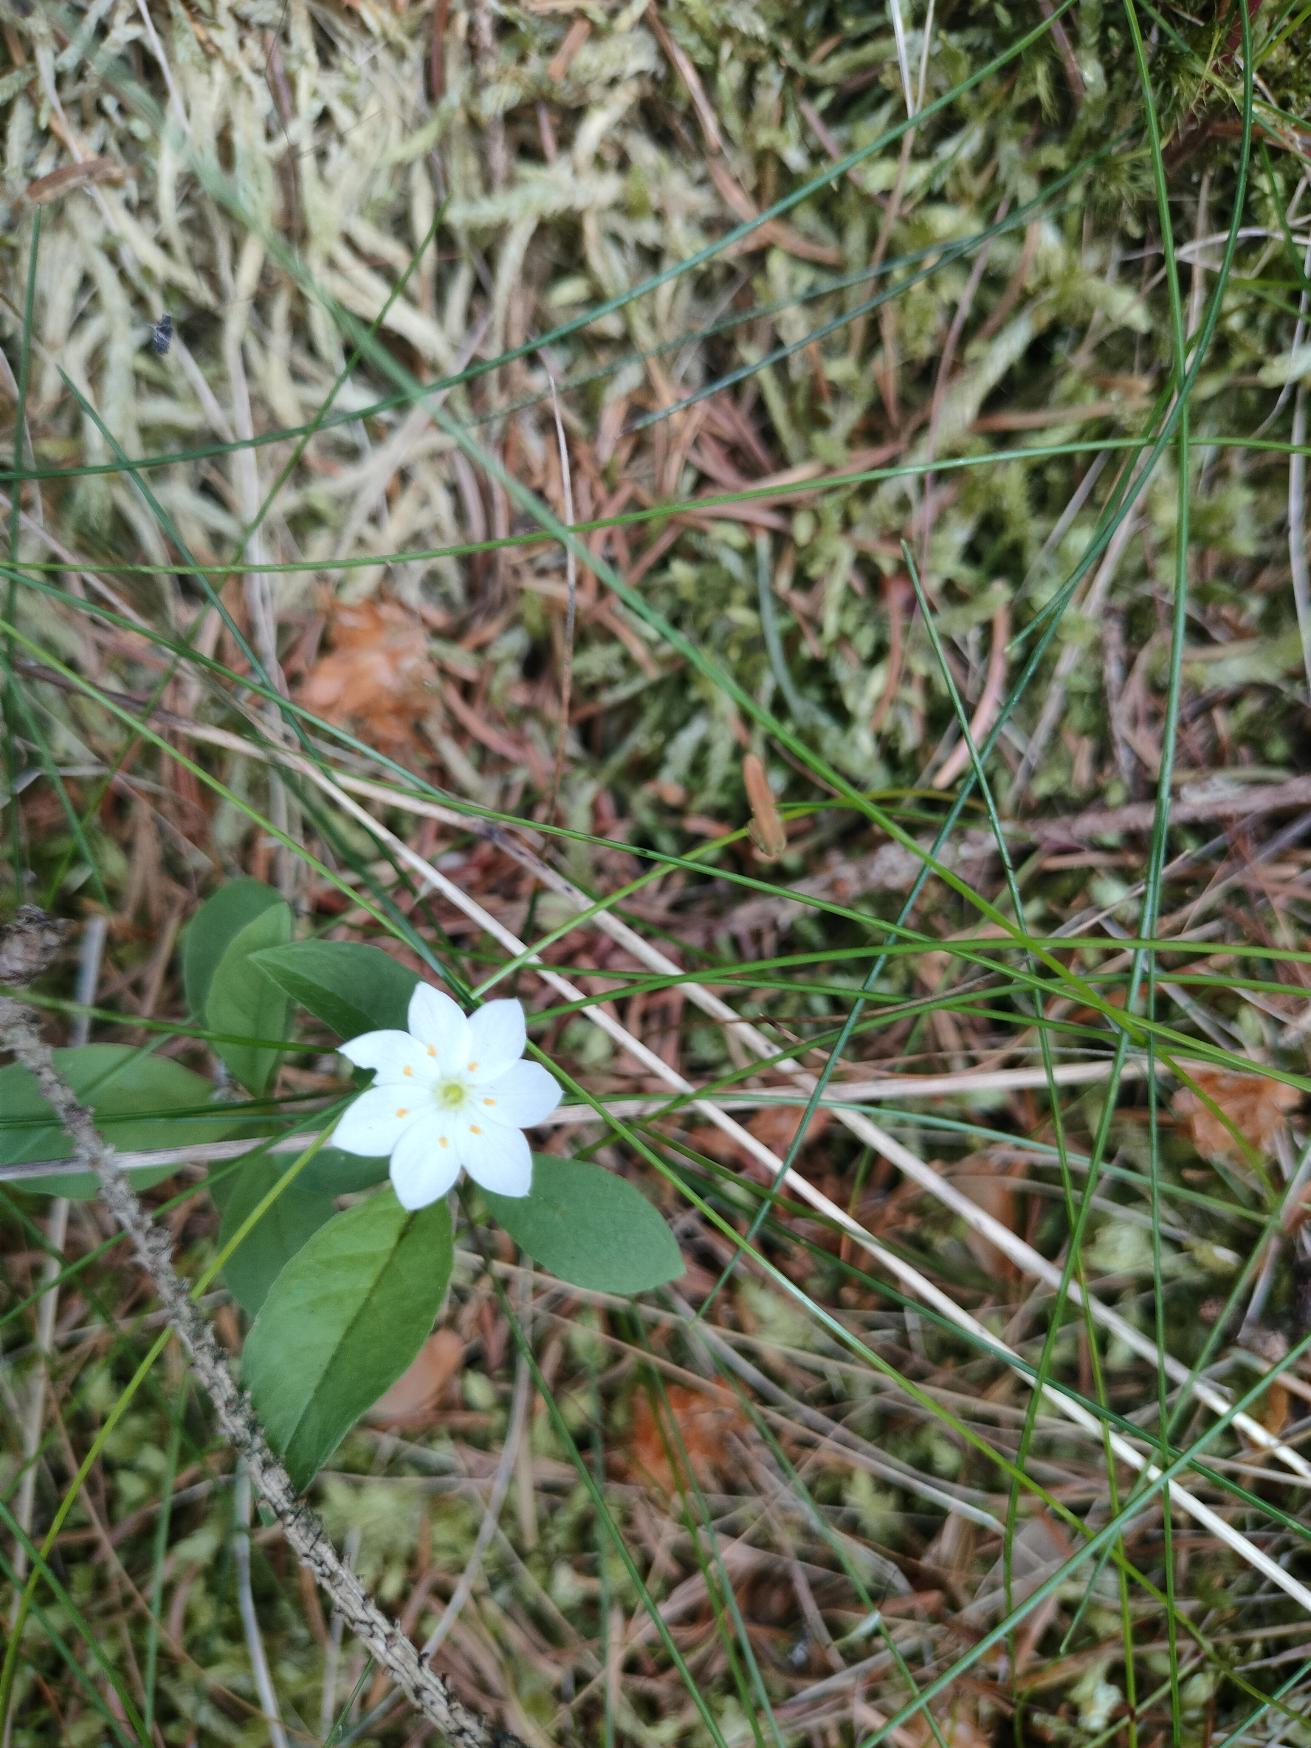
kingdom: Plantae
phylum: Tracheophyta
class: Magnoliopsida
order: Ericales
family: Primulaceae
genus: Lysimachia
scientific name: Lysimachia europaea
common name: Skovstjerne
